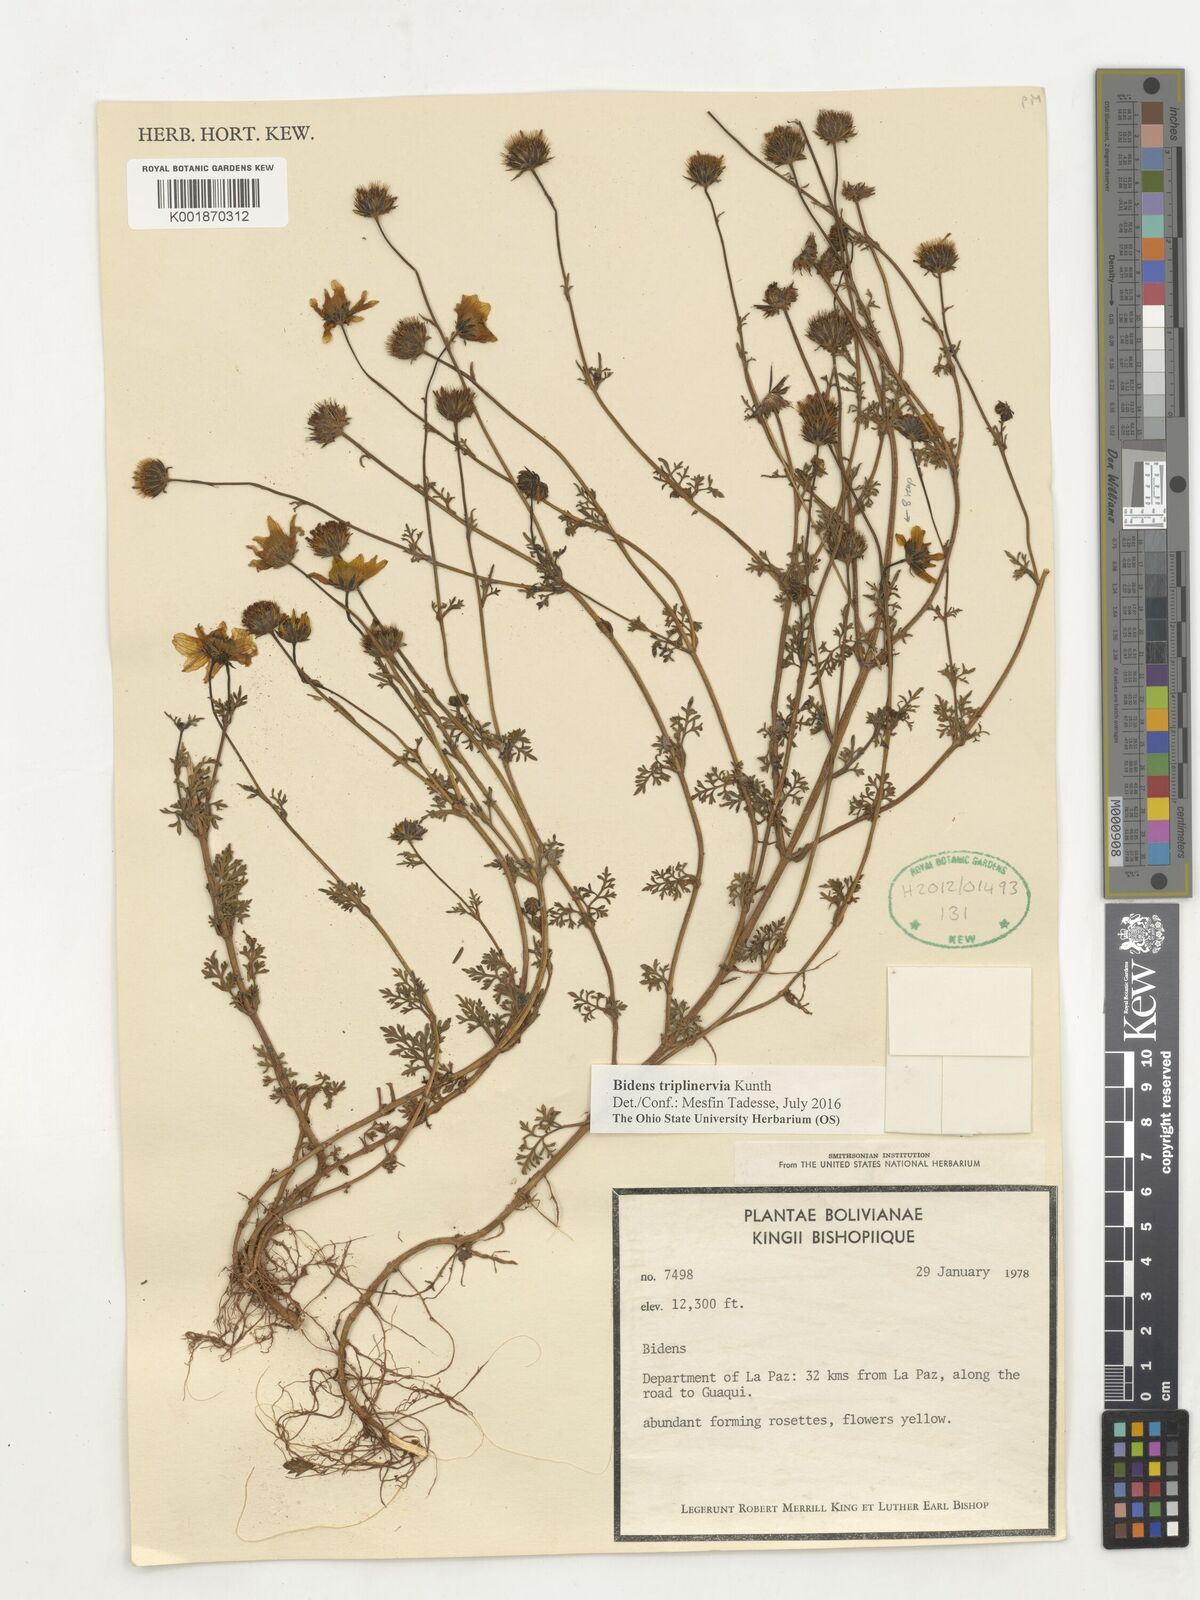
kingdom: Plantae
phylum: Tracheophyta
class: Magnoliopsida
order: Asterales
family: Asteraceae
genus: Bidens
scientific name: Bidens triplinervia
